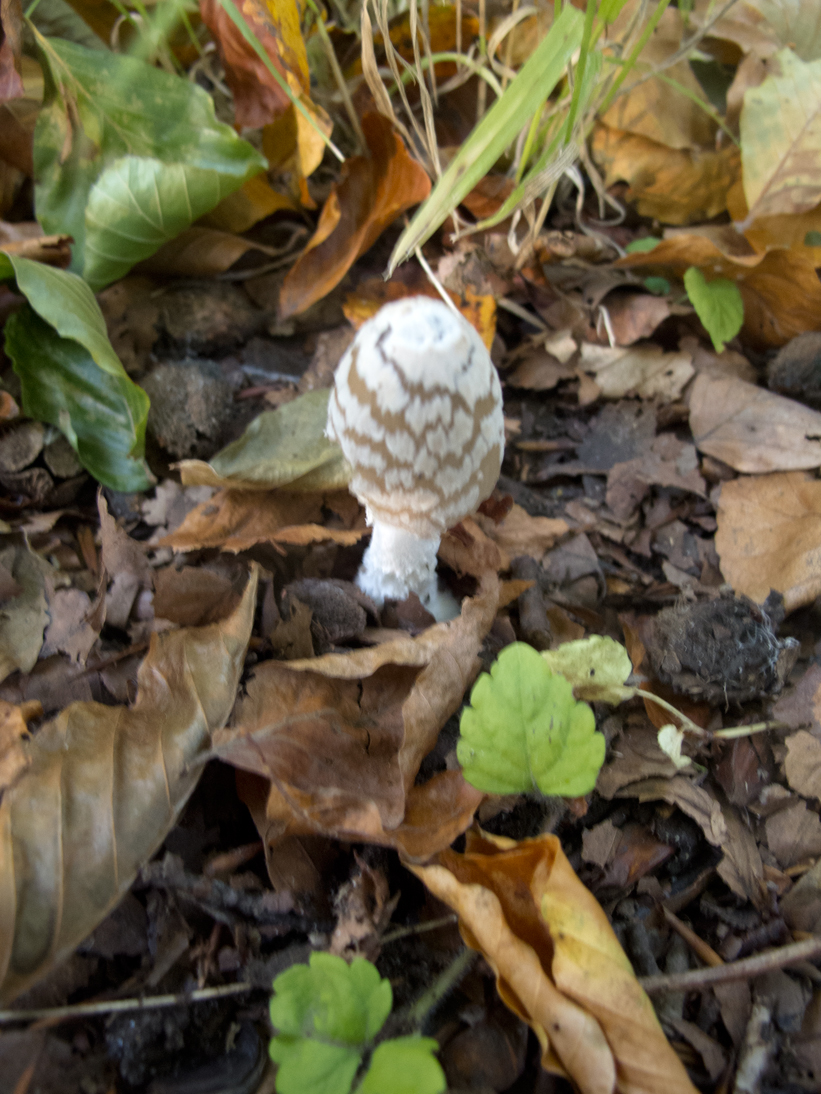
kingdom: Fungi
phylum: Basidiomycota
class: Agaricomycetes
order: Agaricales
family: Psathyrellaceae
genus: Coprinopsis
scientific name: Coprinopsis picacea
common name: skade-blækhat
